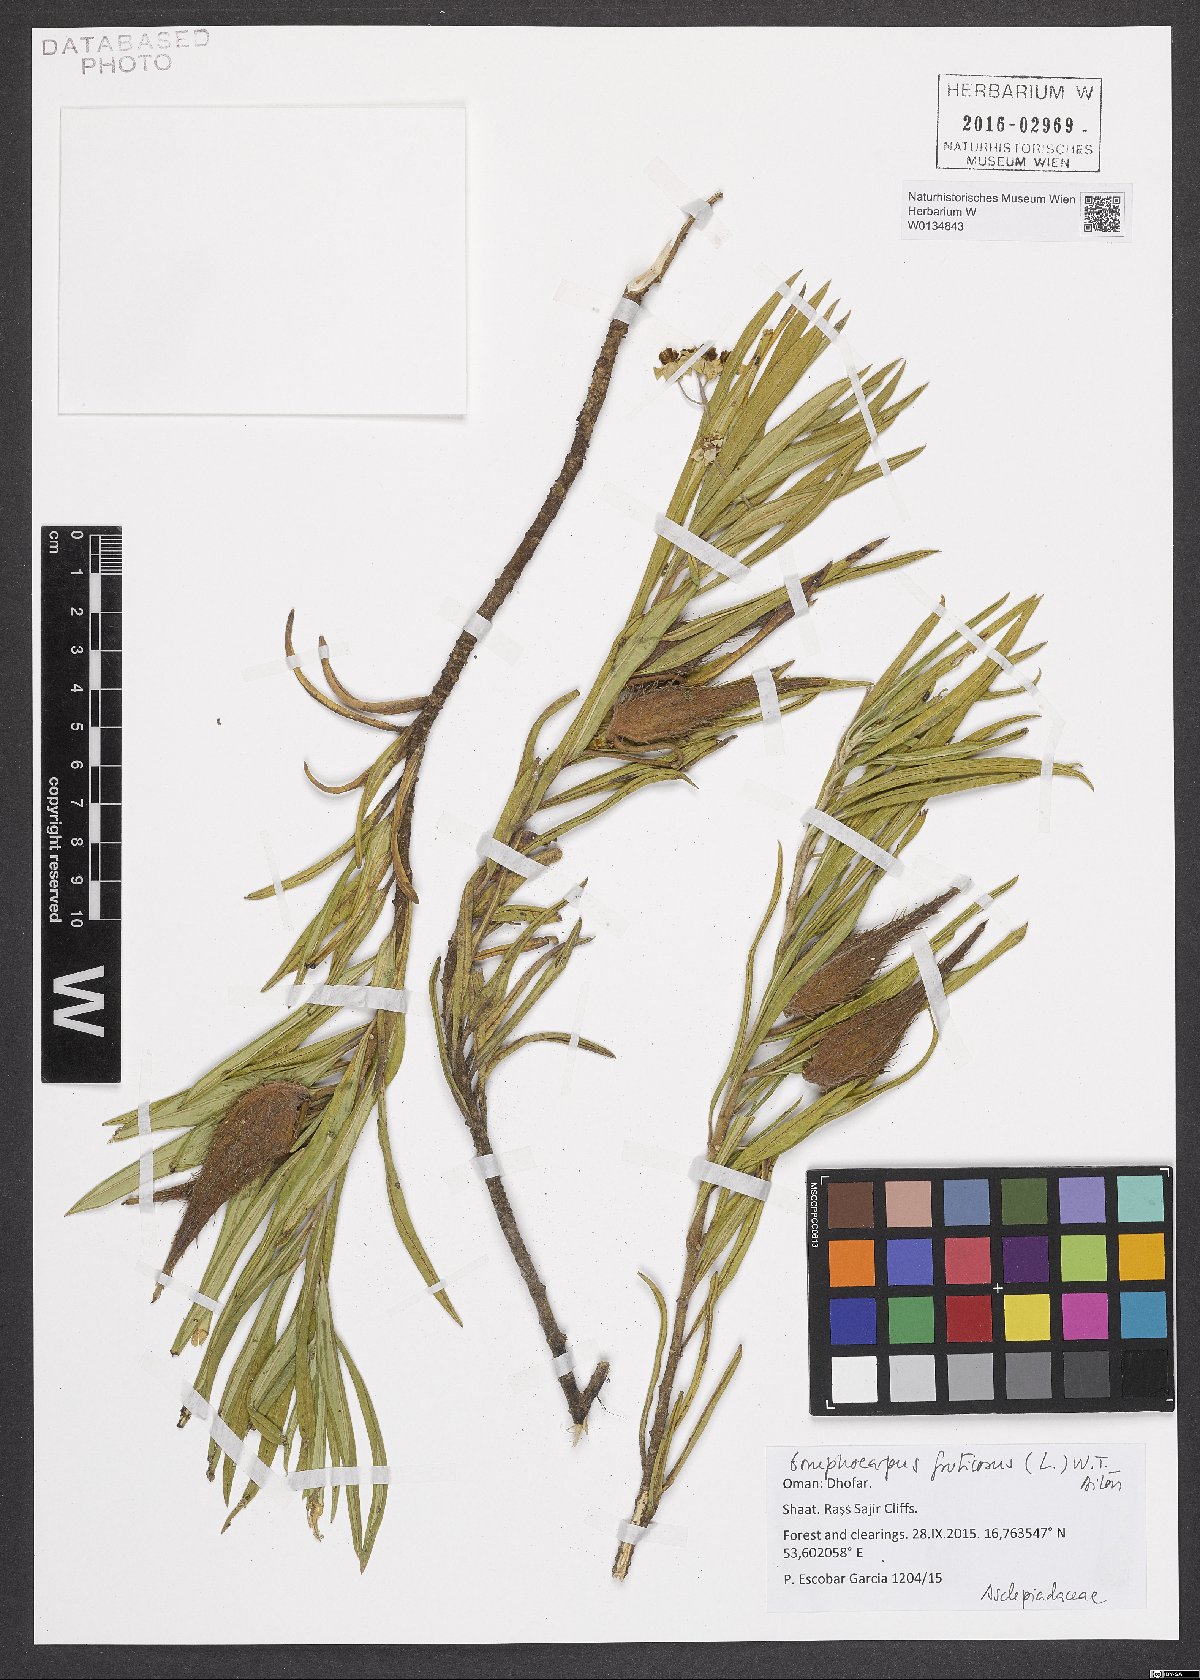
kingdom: Plantae
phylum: Tracheophyta
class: Magnoliopsida
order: Gentianales
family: Apocynaceae
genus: Gomphocarpus
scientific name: Gomphocarpus fruticosus
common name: Milkweed
